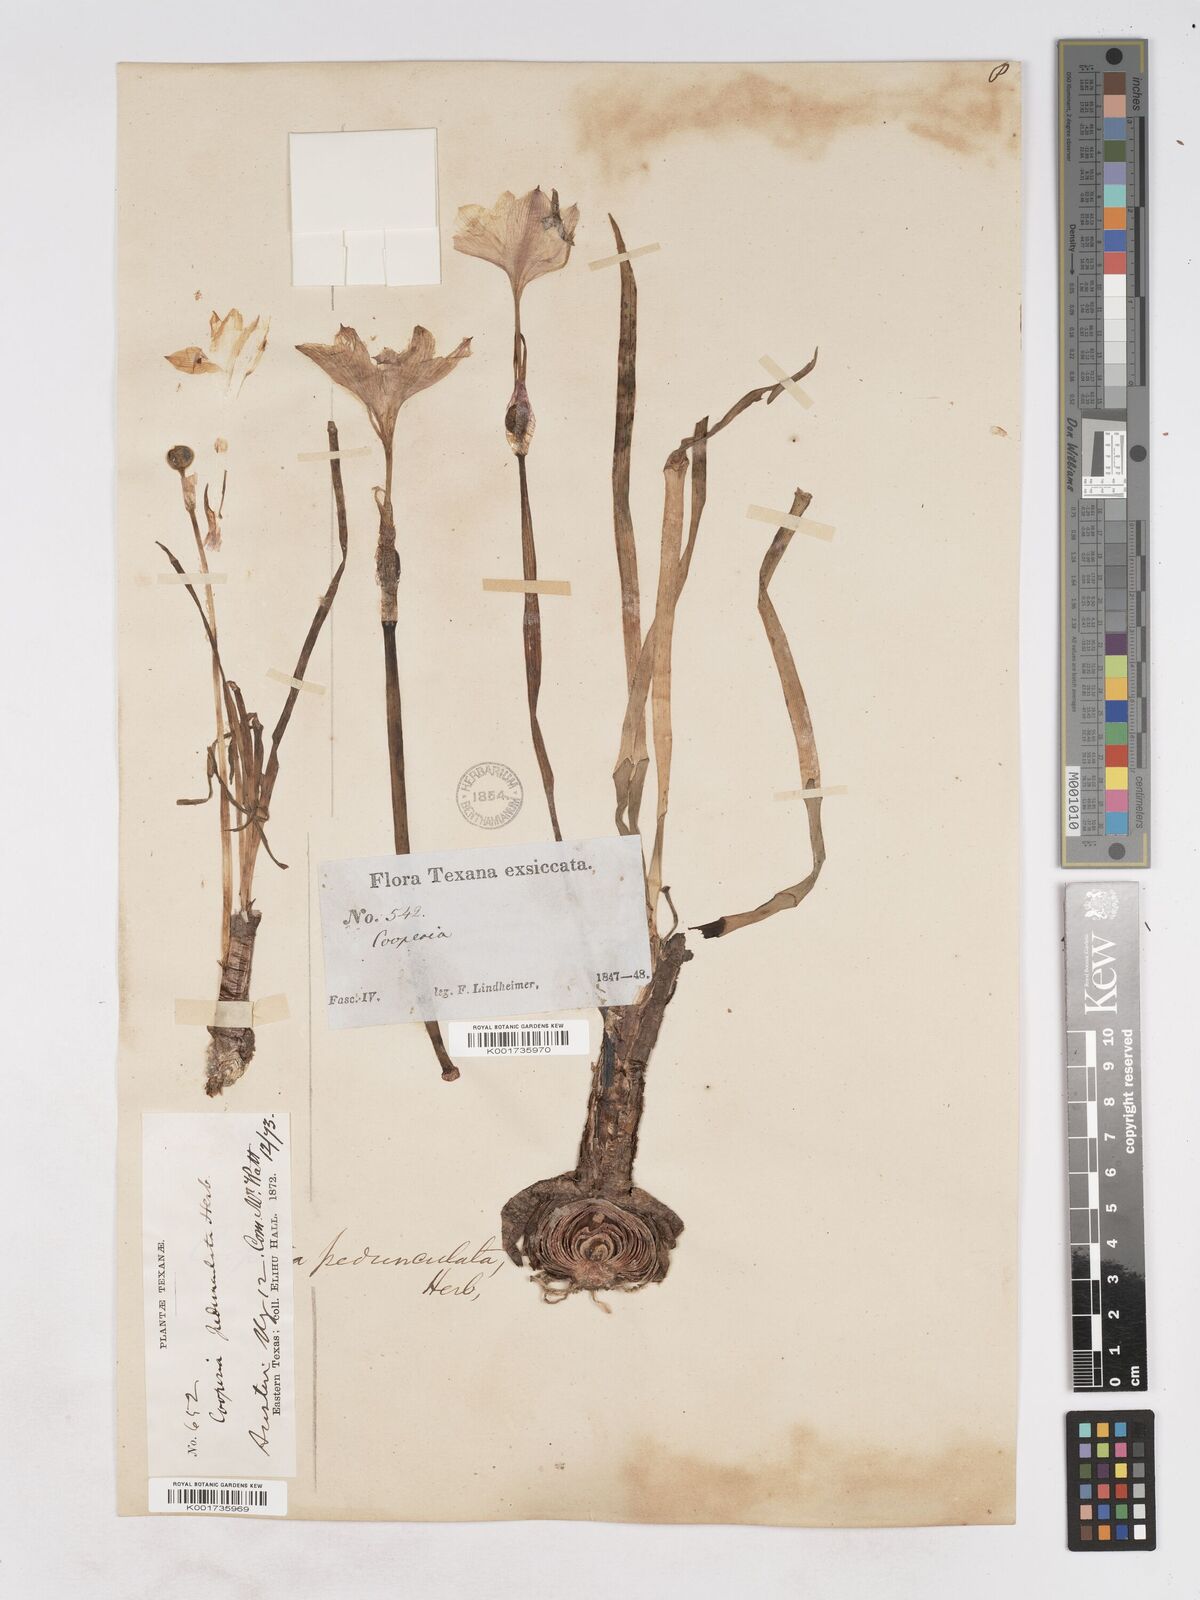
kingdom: Plantae
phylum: Tracheophyta
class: Liliopsida
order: Asparagales
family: Amaryllidaceae
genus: Zephyranthes
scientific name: Zephyranthes drummondii
